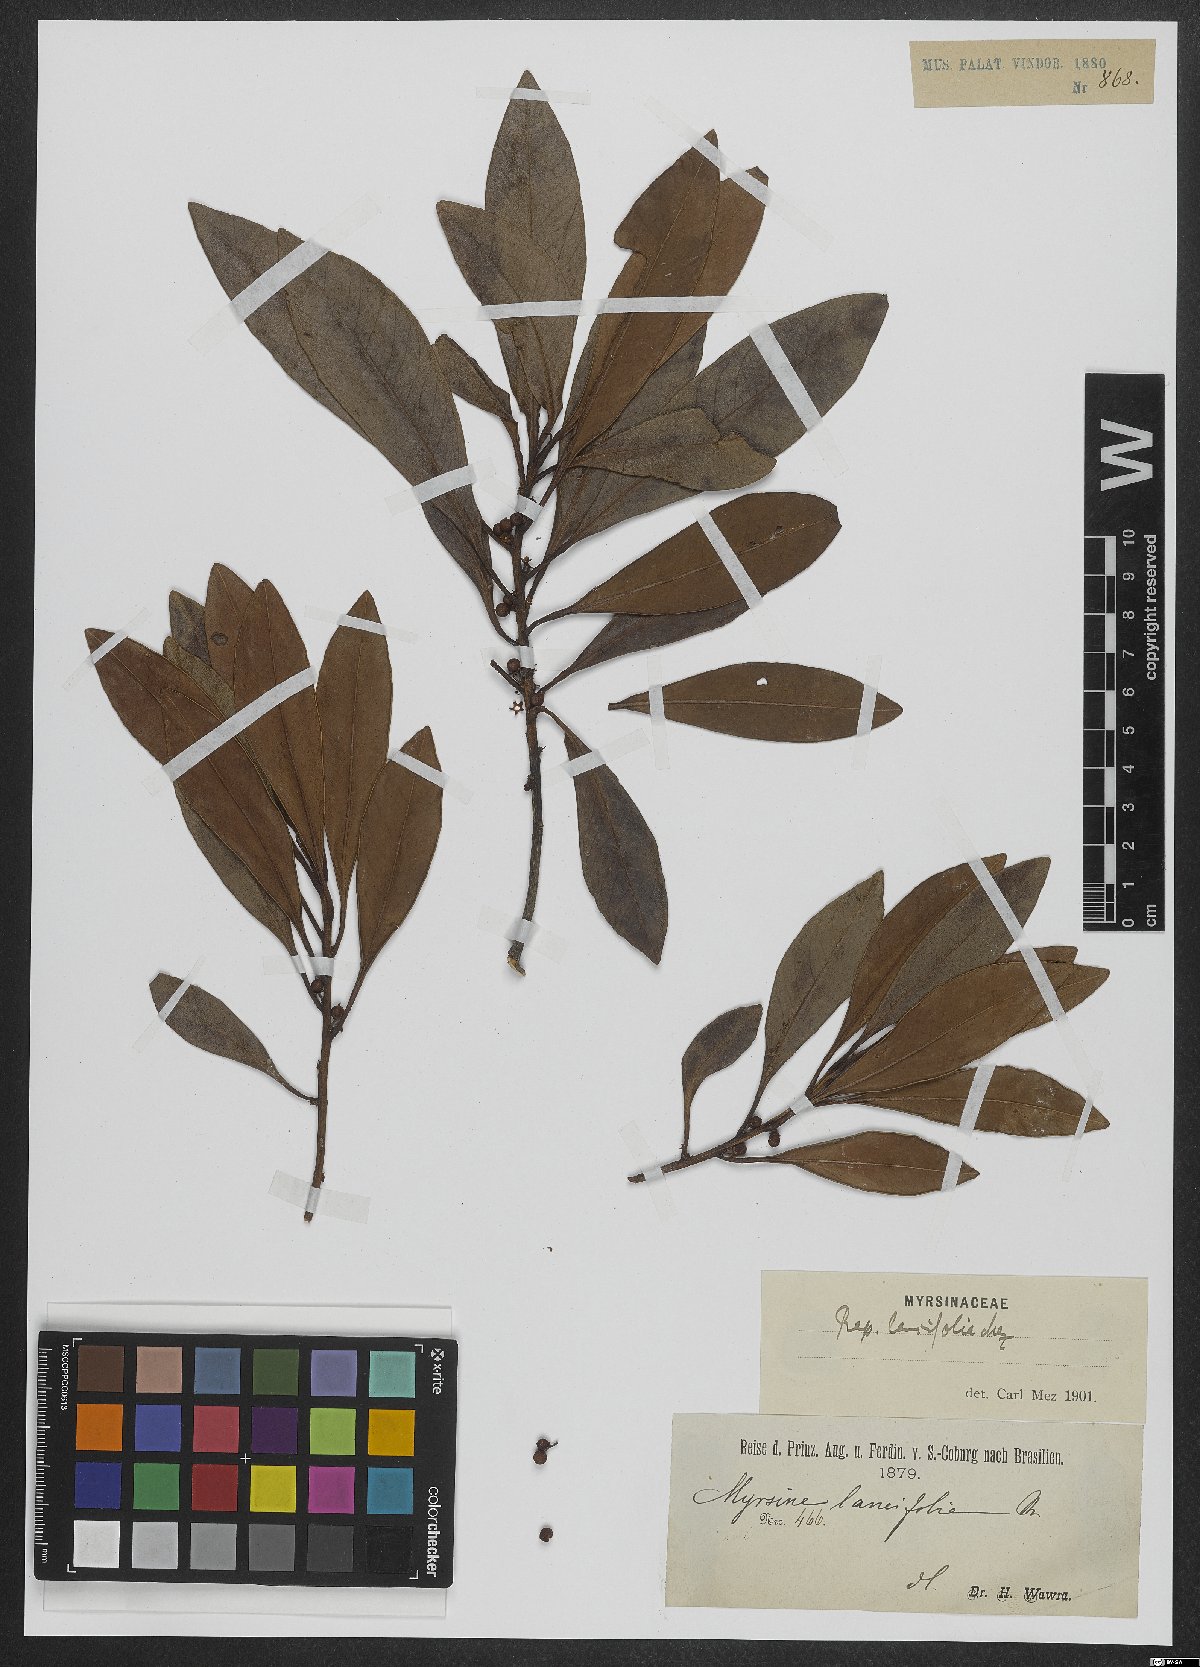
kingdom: Plantae
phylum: Tracheophyta
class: Magnoliopsida
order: Ericales
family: Primulaceae
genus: Myrsine
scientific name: Myrsine lancifolia
